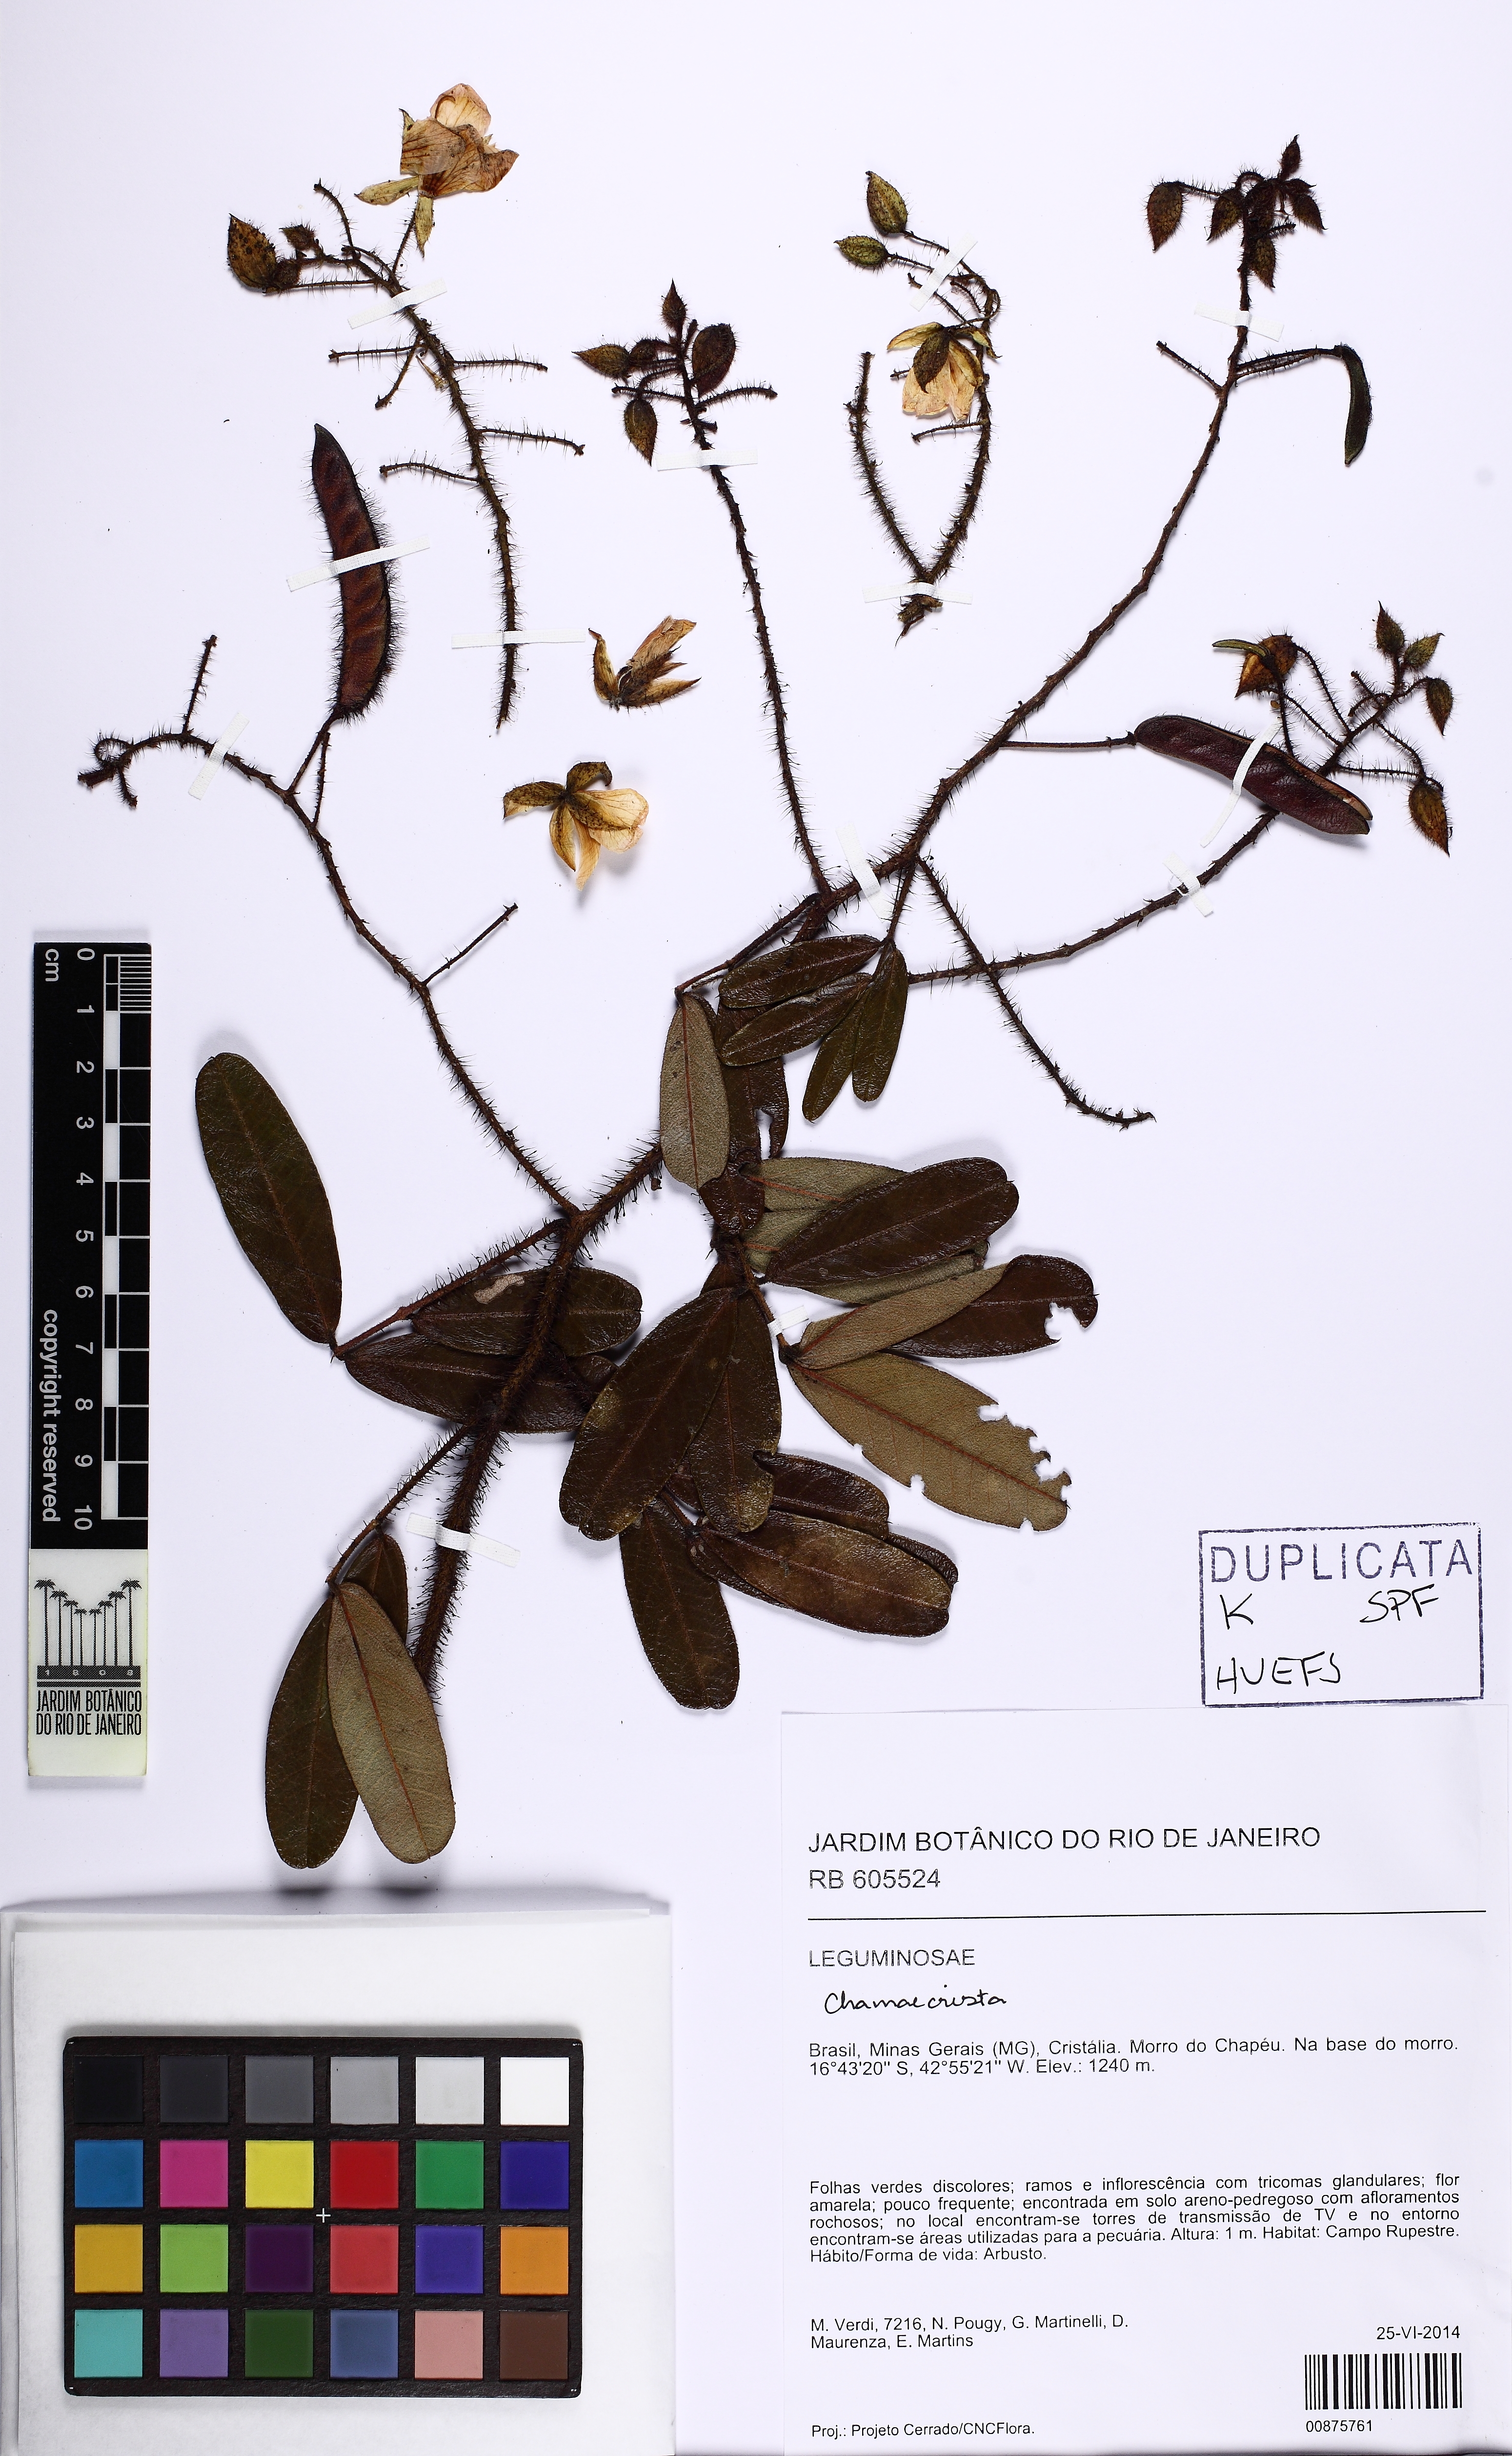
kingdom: Plantae
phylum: Tracheophyta
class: Magnoliopsida
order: Fabales
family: Fabaceae
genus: Chamaecrista
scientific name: Chamaecrista forzzae
